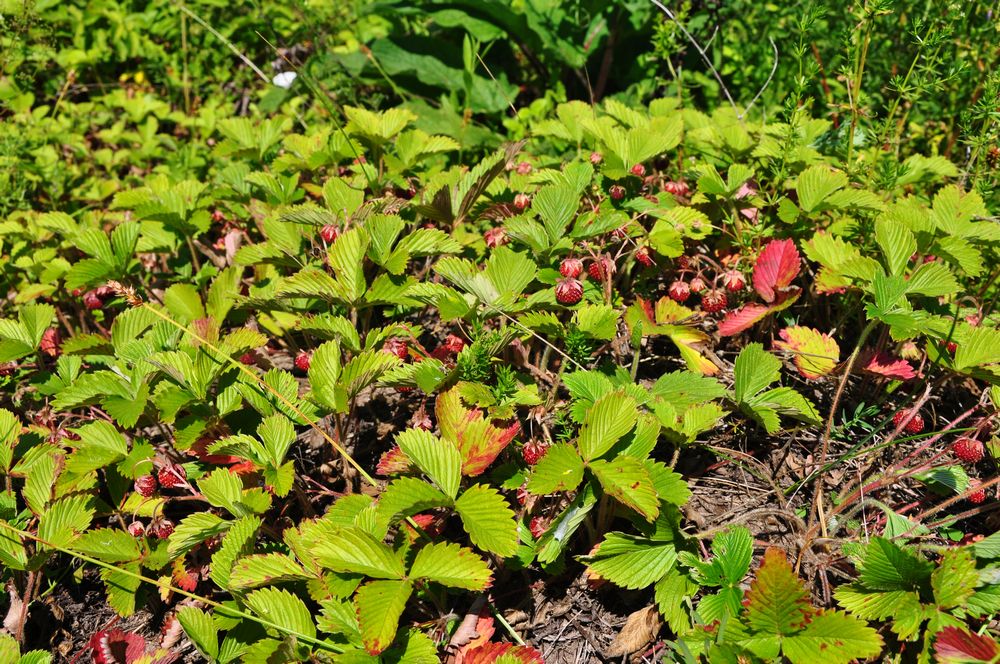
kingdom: Plantae
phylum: Tracheophyta
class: Magnoliopsida
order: Rosales
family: Rosaceae
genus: Fragaria
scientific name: Fragaria viridis
